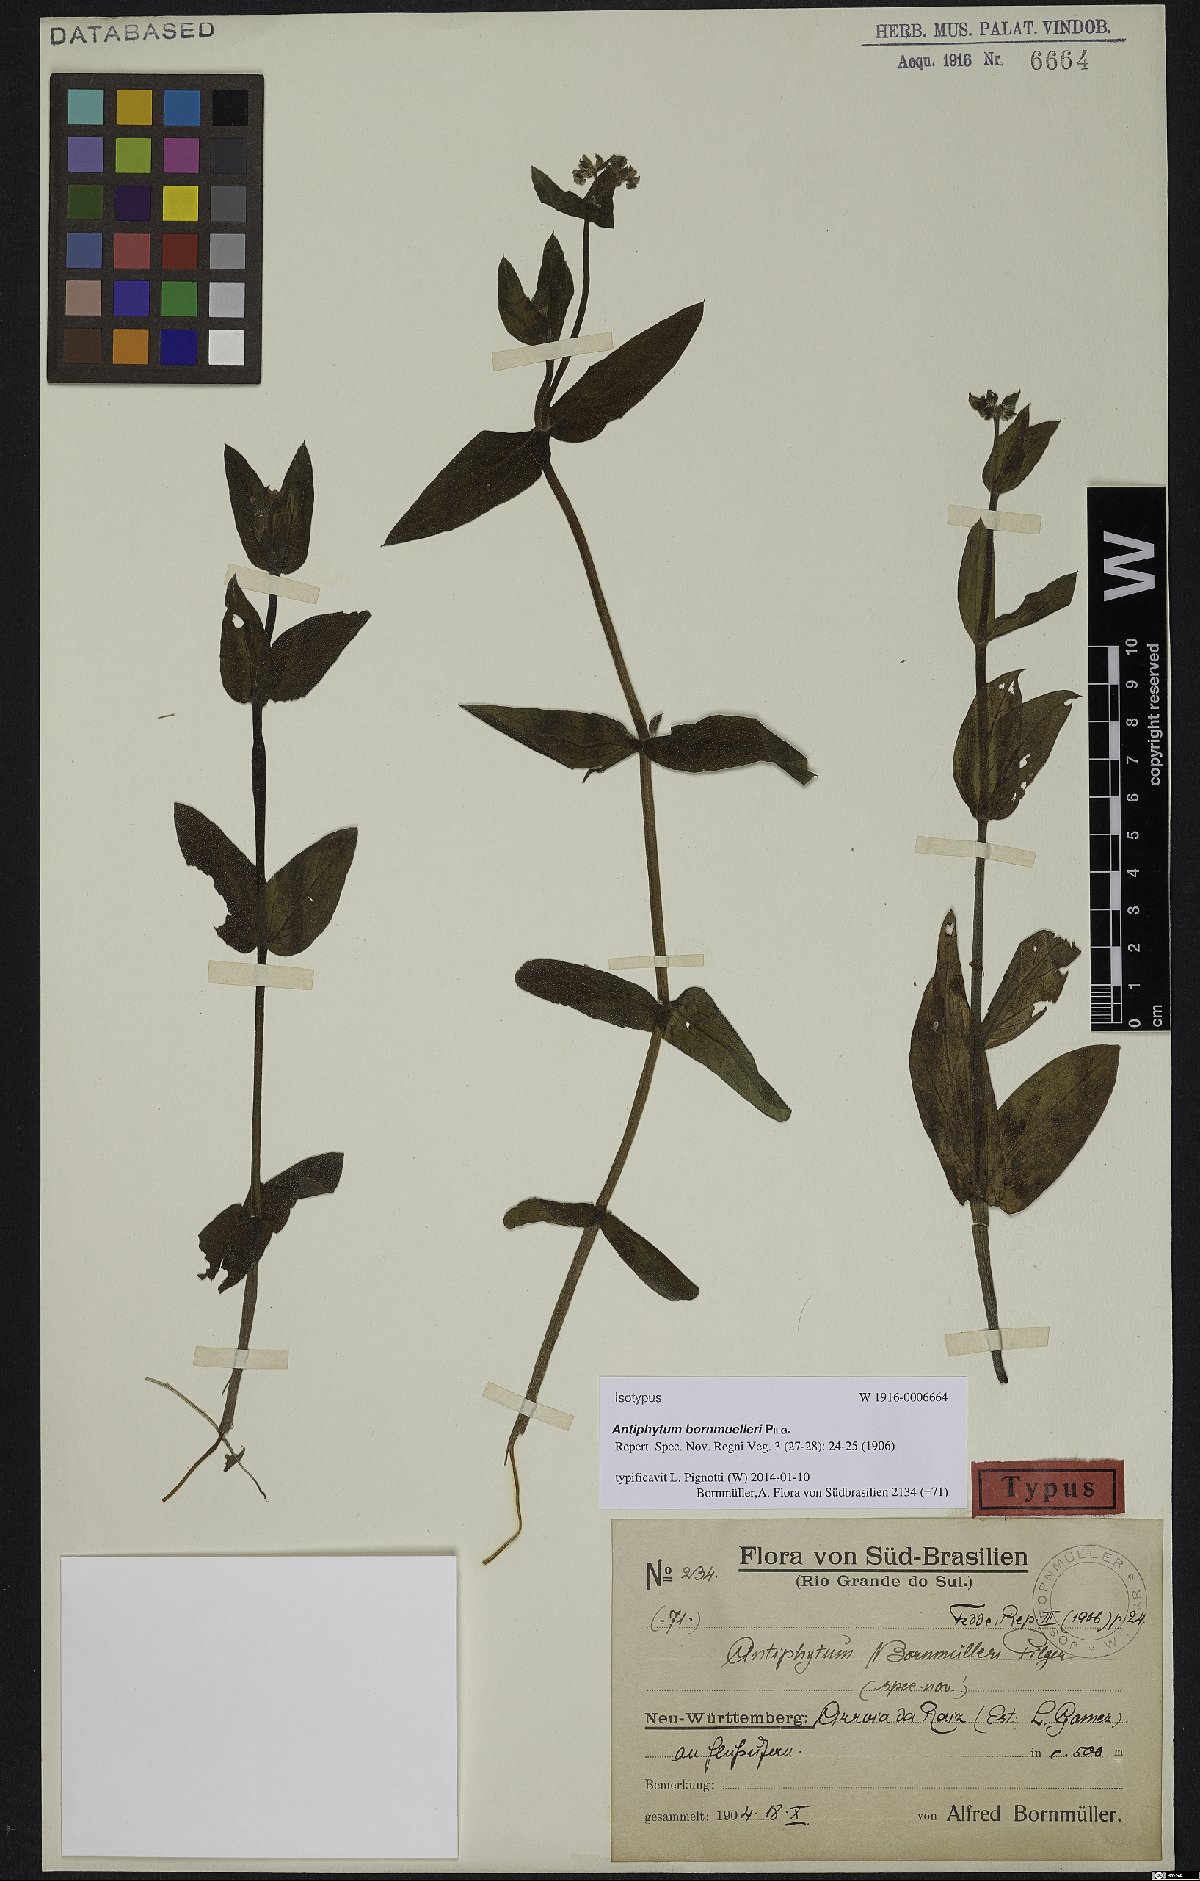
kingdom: Plantae
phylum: Tracheophyta
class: Magnoliopsida
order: Boraginales
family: Boraginaceae
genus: Antiphytum
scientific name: Antiphytum bornmuelleri
